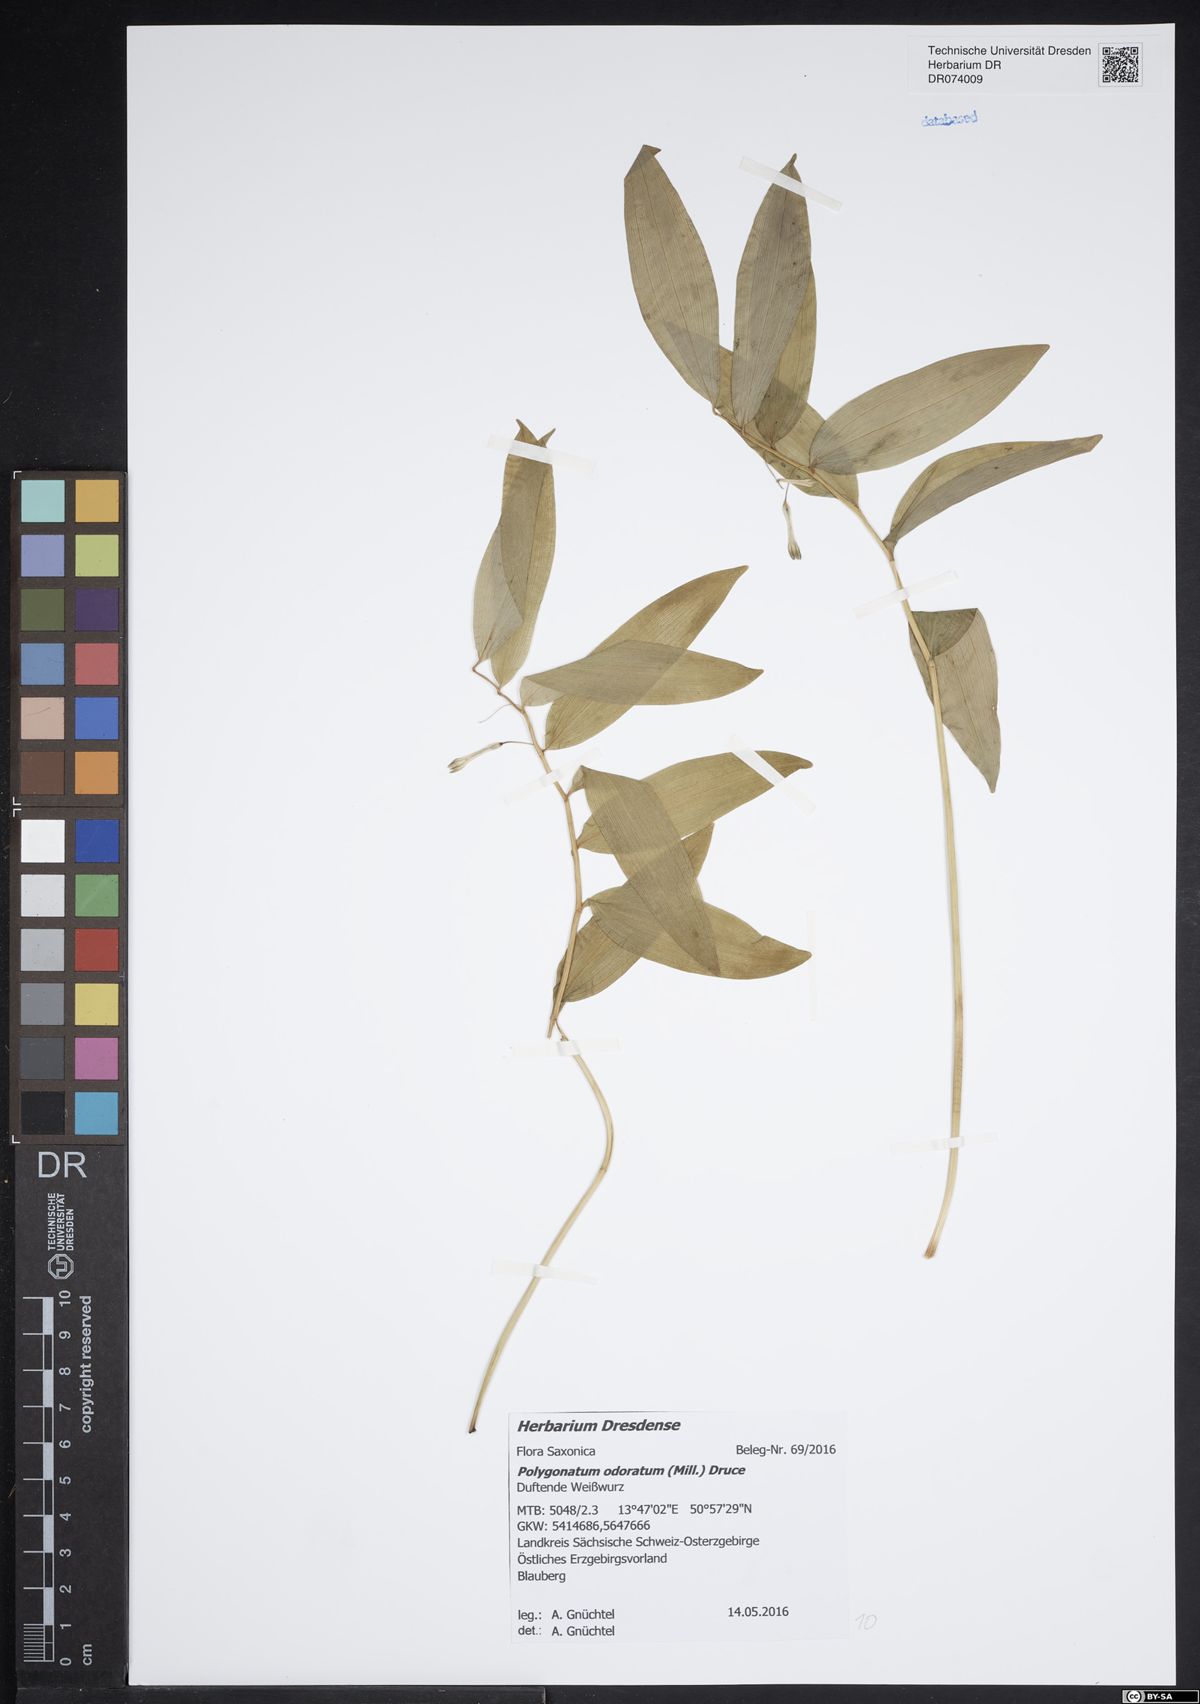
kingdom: Plantae
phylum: Tracheophyta
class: Liliopsida
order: Asparagales
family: Asparagaceae
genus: Polygonatum
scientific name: Polygonatum odoratum
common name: Angular solomon's-seal
